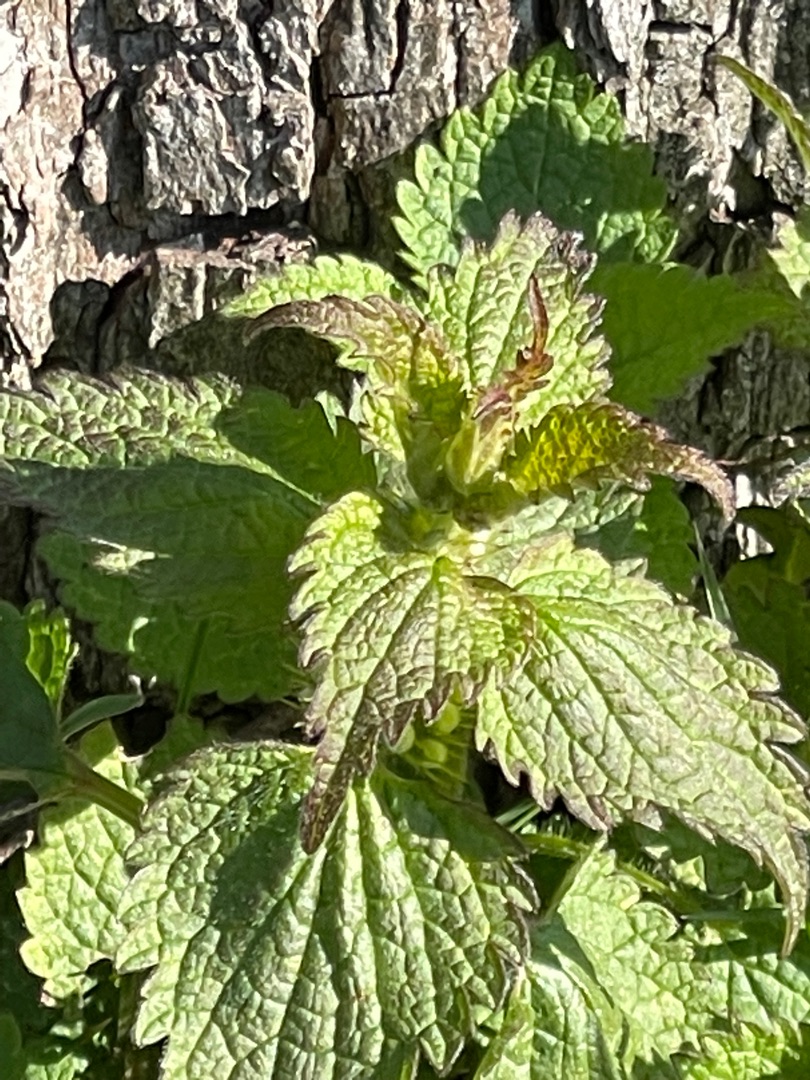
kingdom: Plantae
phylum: Tracheophyta
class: Magnoliopsida
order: Lamiales
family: Lamiaceae
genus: Lamium
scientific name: Lamium album
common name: Døvnælde
